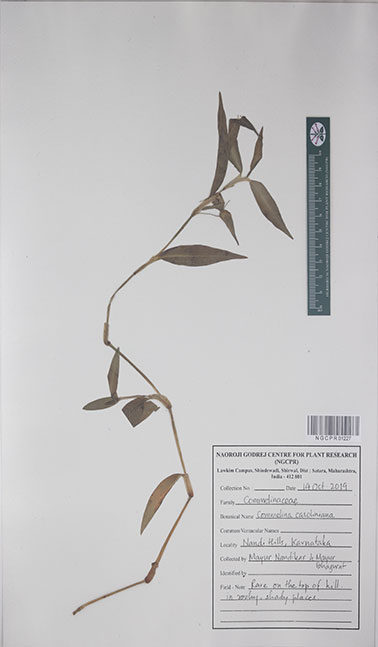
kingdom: Plantae
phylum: Tracheophyta
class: Liliopsida
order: Commelinales
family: Commelinaceae
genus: Commelina
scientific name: Commelina caroliniana
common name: Carolina dayflower
